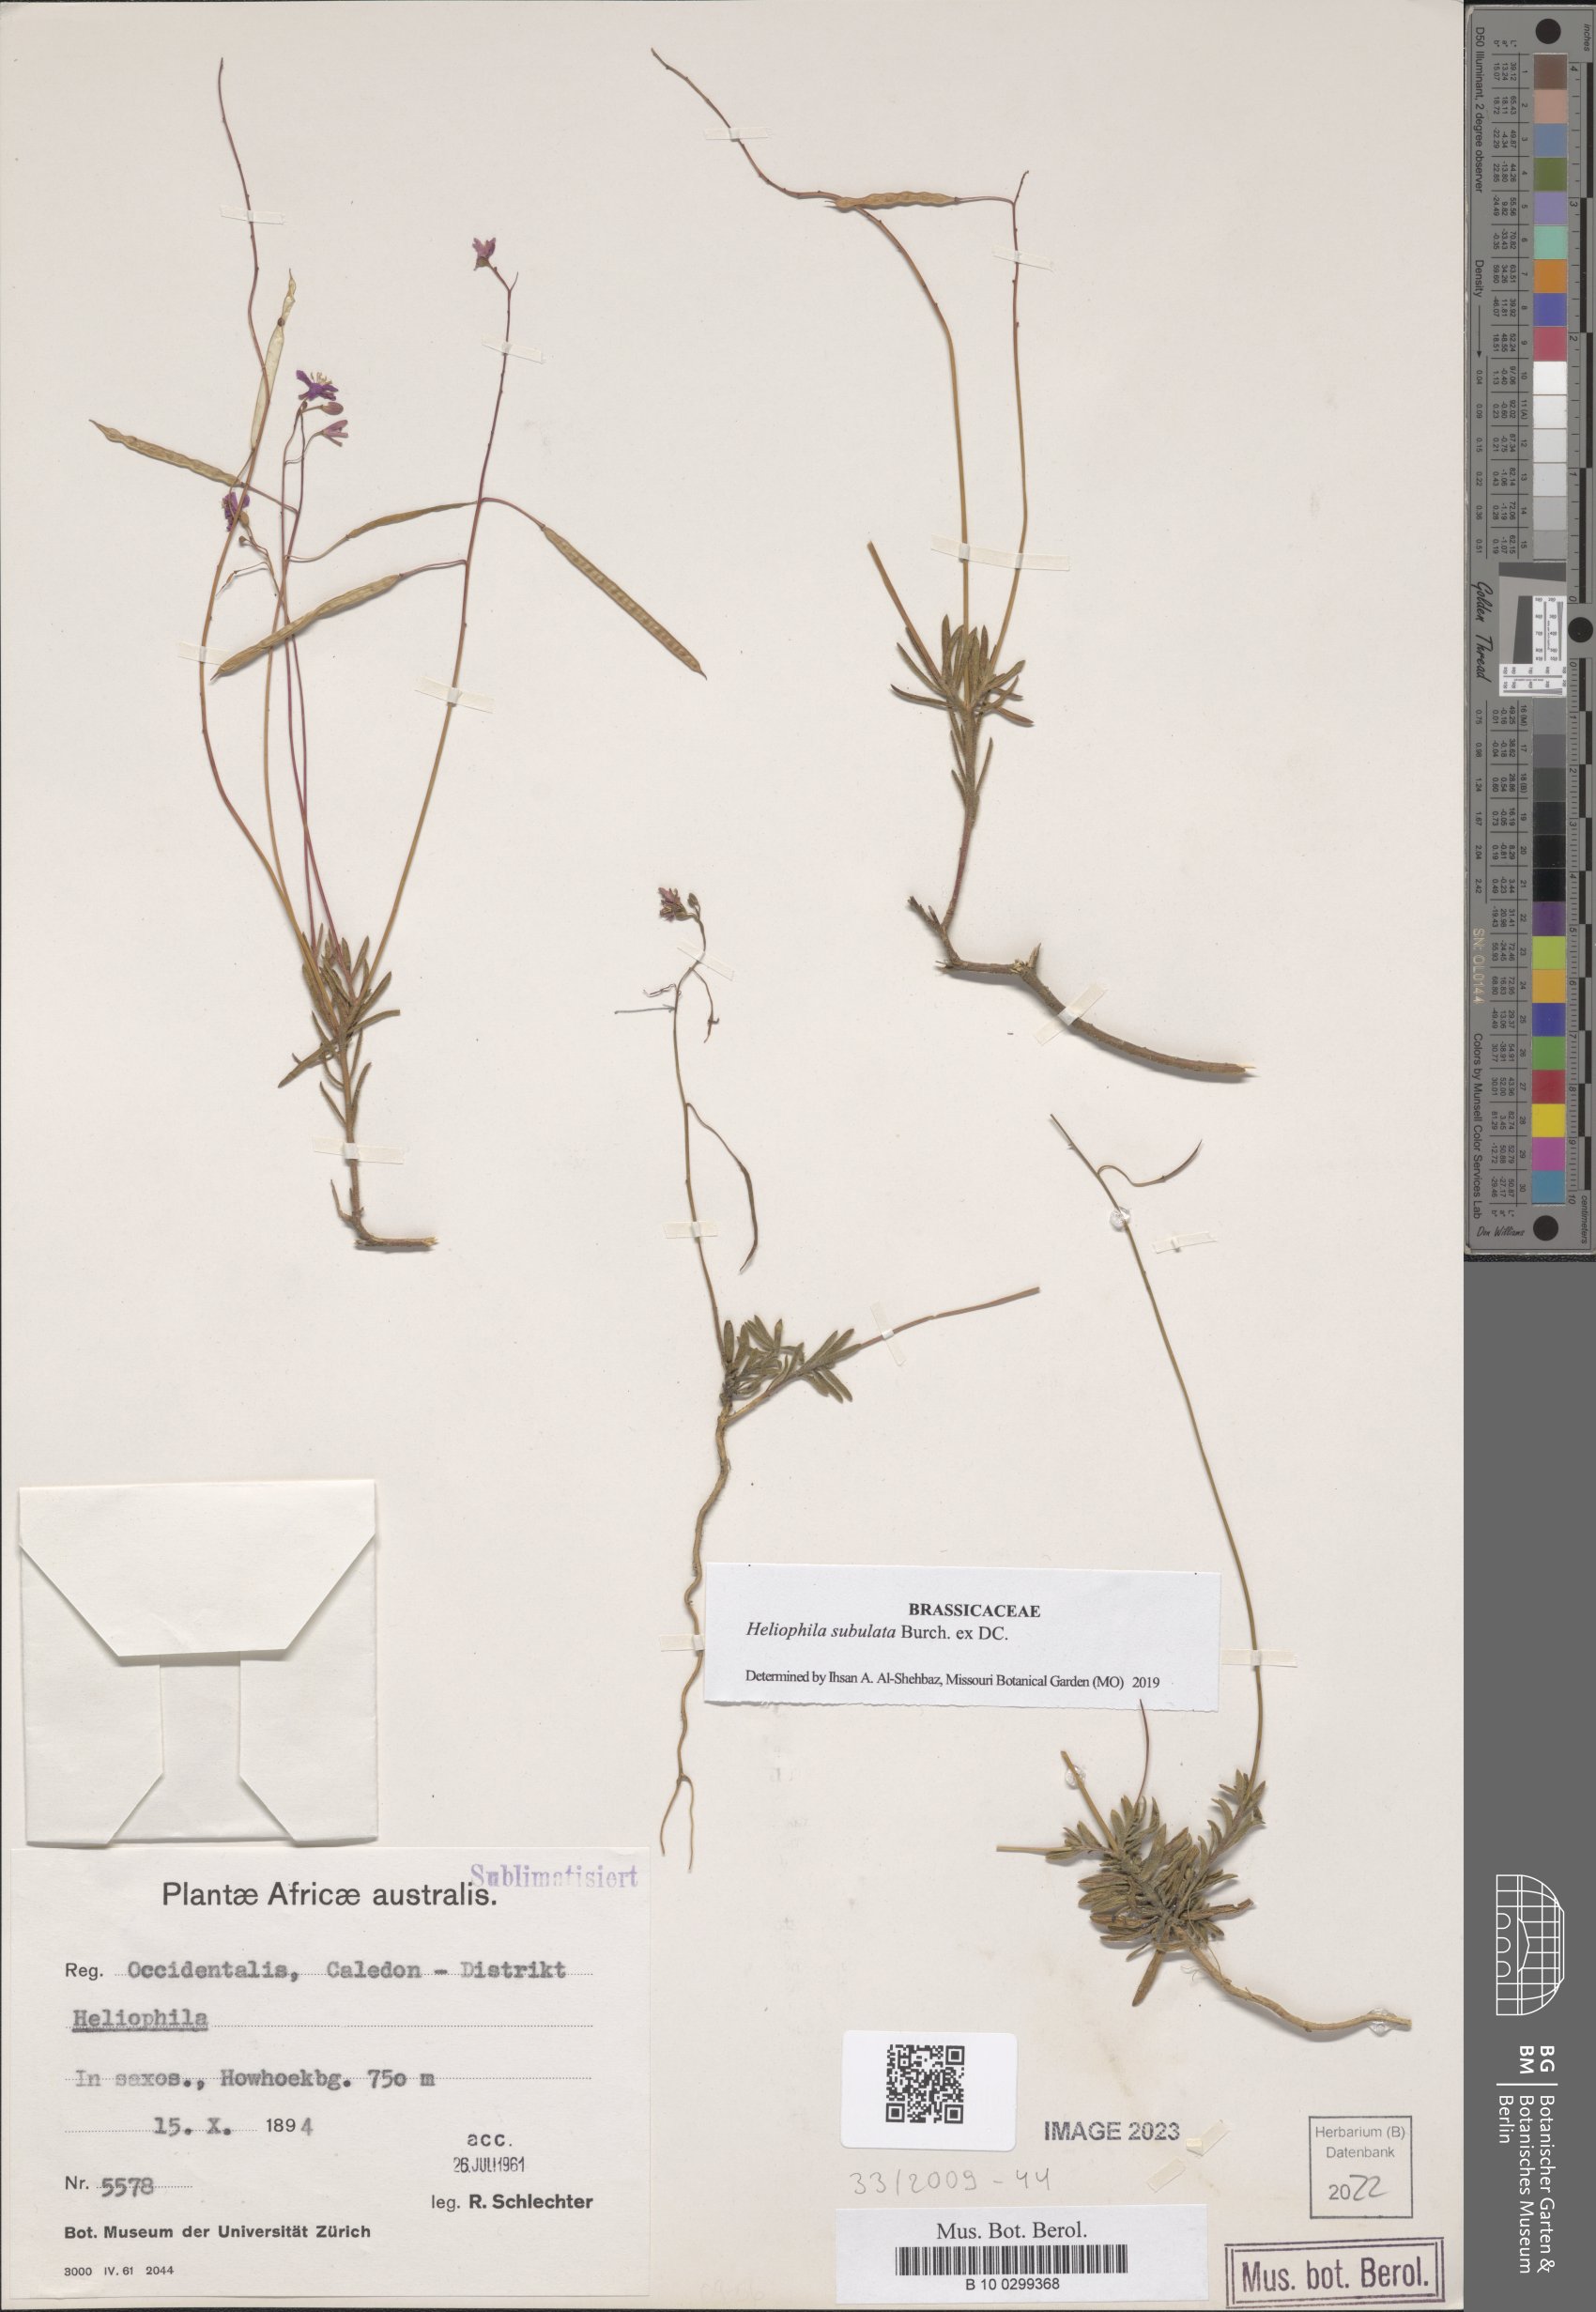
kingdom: Plantae
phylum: Tracheophyta
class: Magnoliopsida
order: Brassicales
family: Brassicaceae
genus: Heliophila
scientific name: Heliophila subulata
